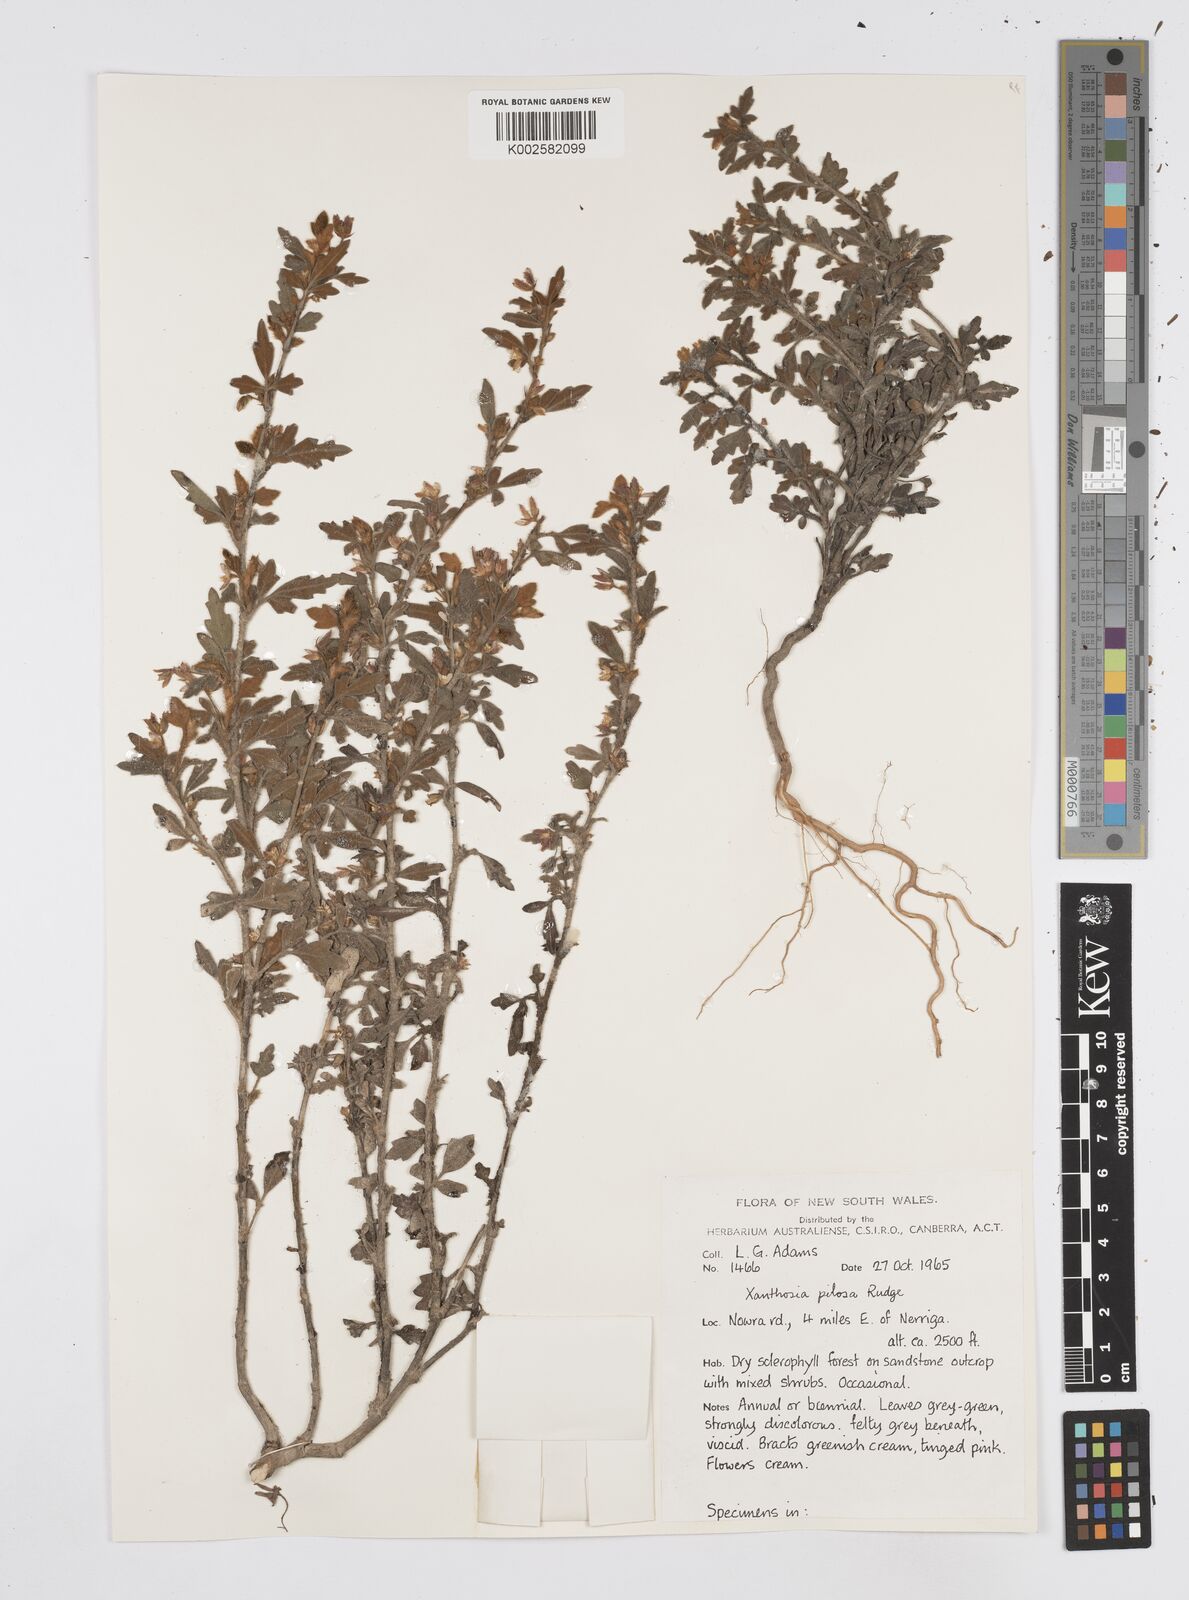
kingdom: Plantae
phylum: Tracheophyta
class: Magnoliopsida
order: Apiales
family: Apiaceae
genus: Xanthosia
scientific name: Xanthosia pilosa
